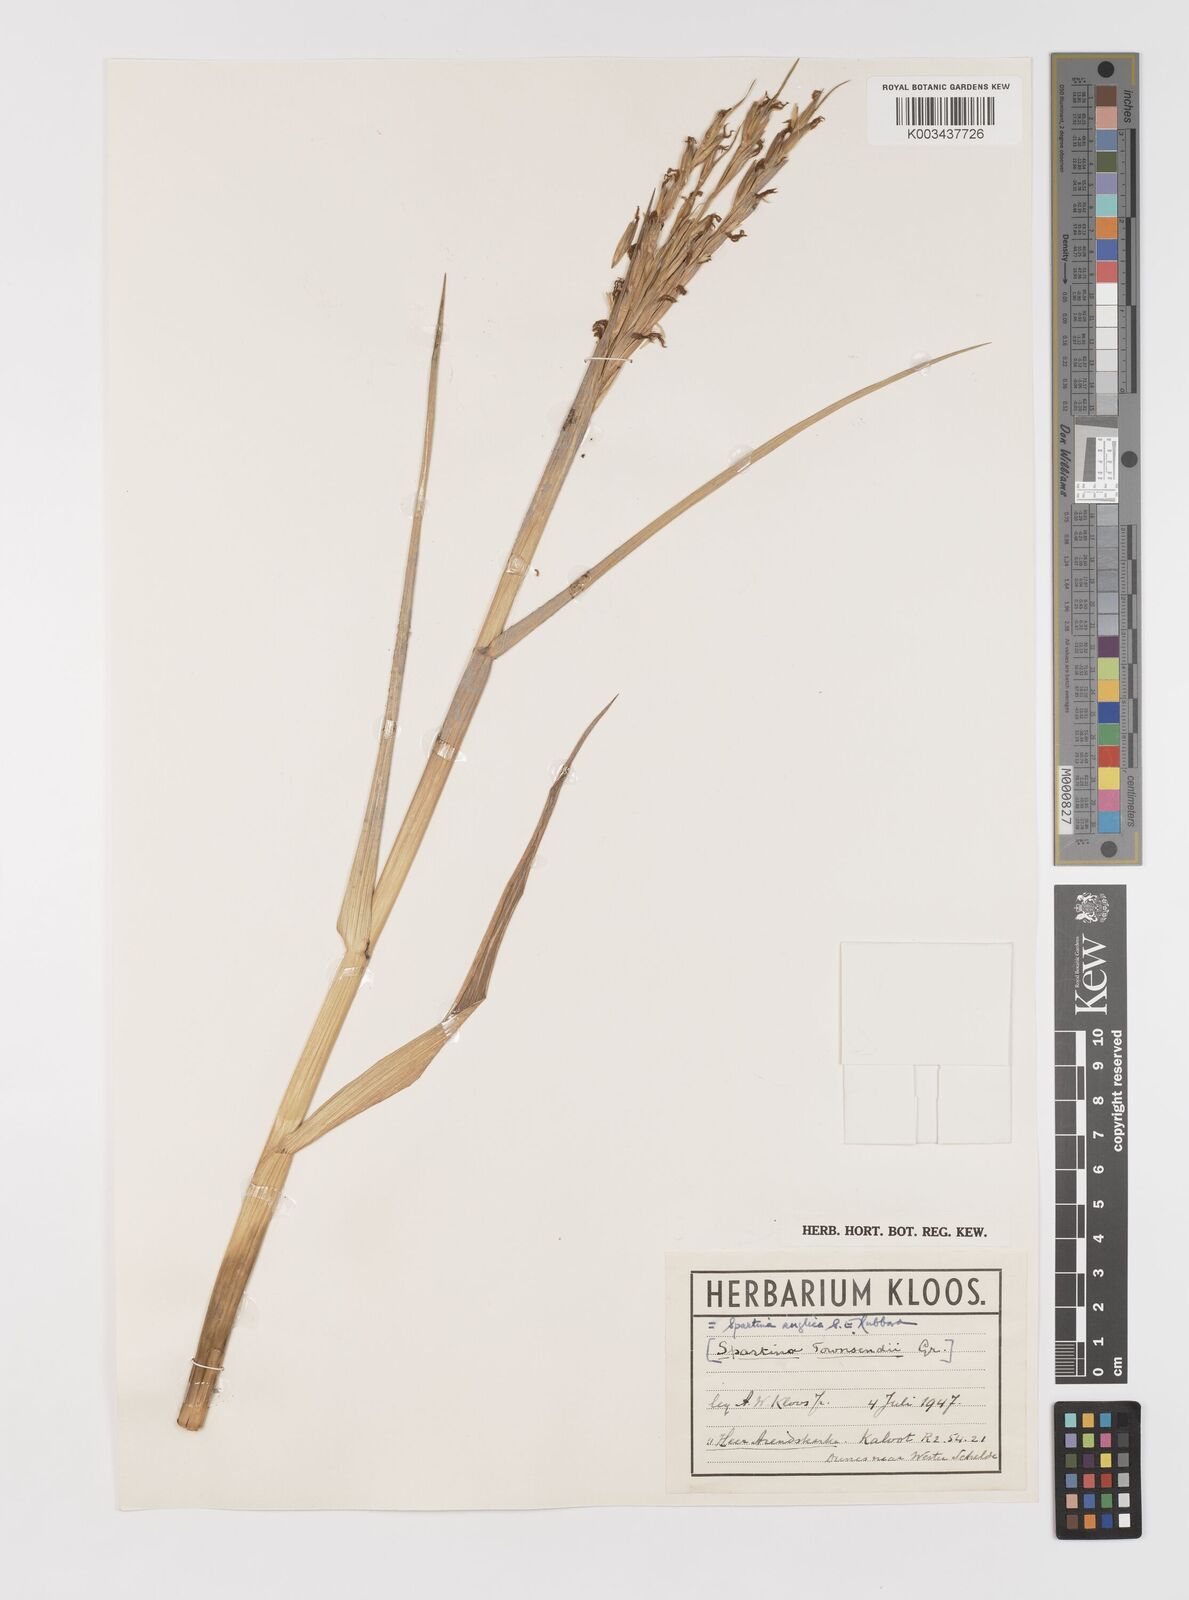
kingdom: Plantae
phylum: Tracheophyta
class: Liliopsida
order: Poales
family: Poaceae
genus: Sporobolus
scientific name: Sporobolus anglicus
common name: English cordgrass
